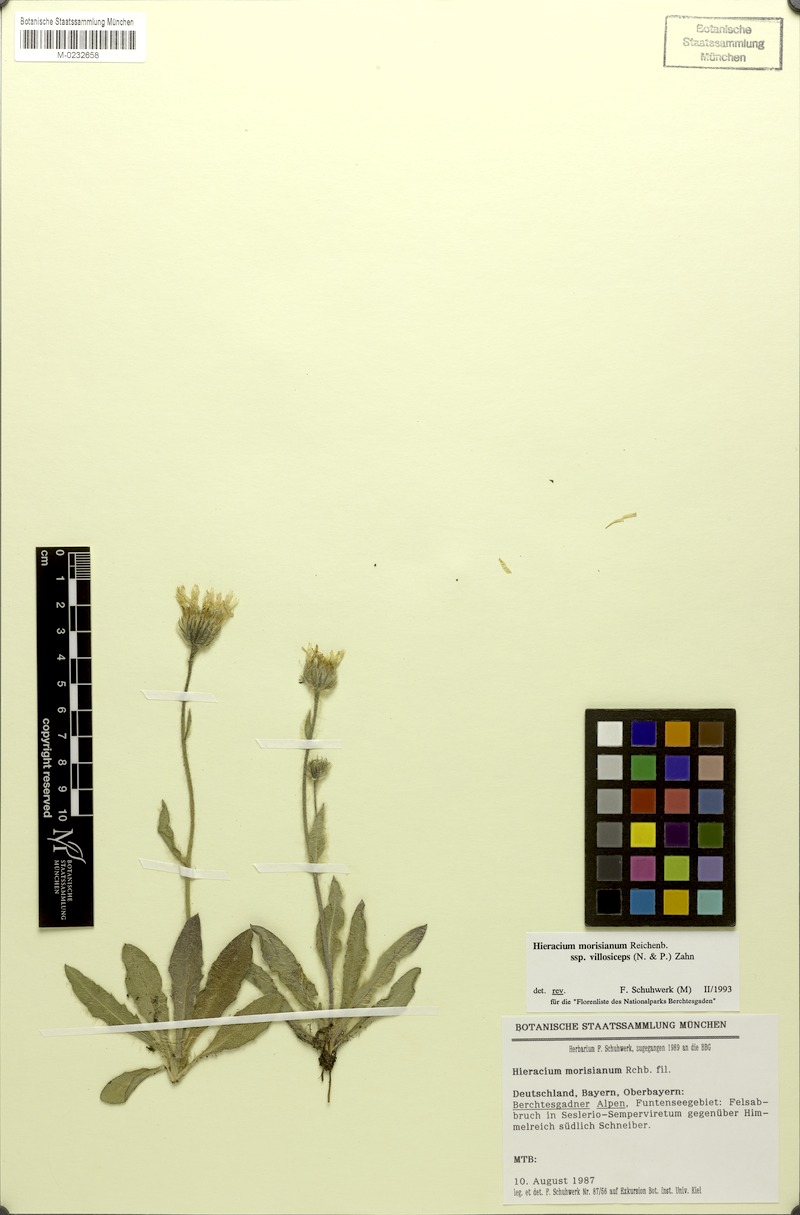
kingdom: Plantae
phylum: Tracheophyta
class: Magnoliopsida
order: Asterales
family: Asteraceae
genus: Hieracium
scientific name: Hieracium pilosum
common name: Fimbriate-pitted hawkweed
